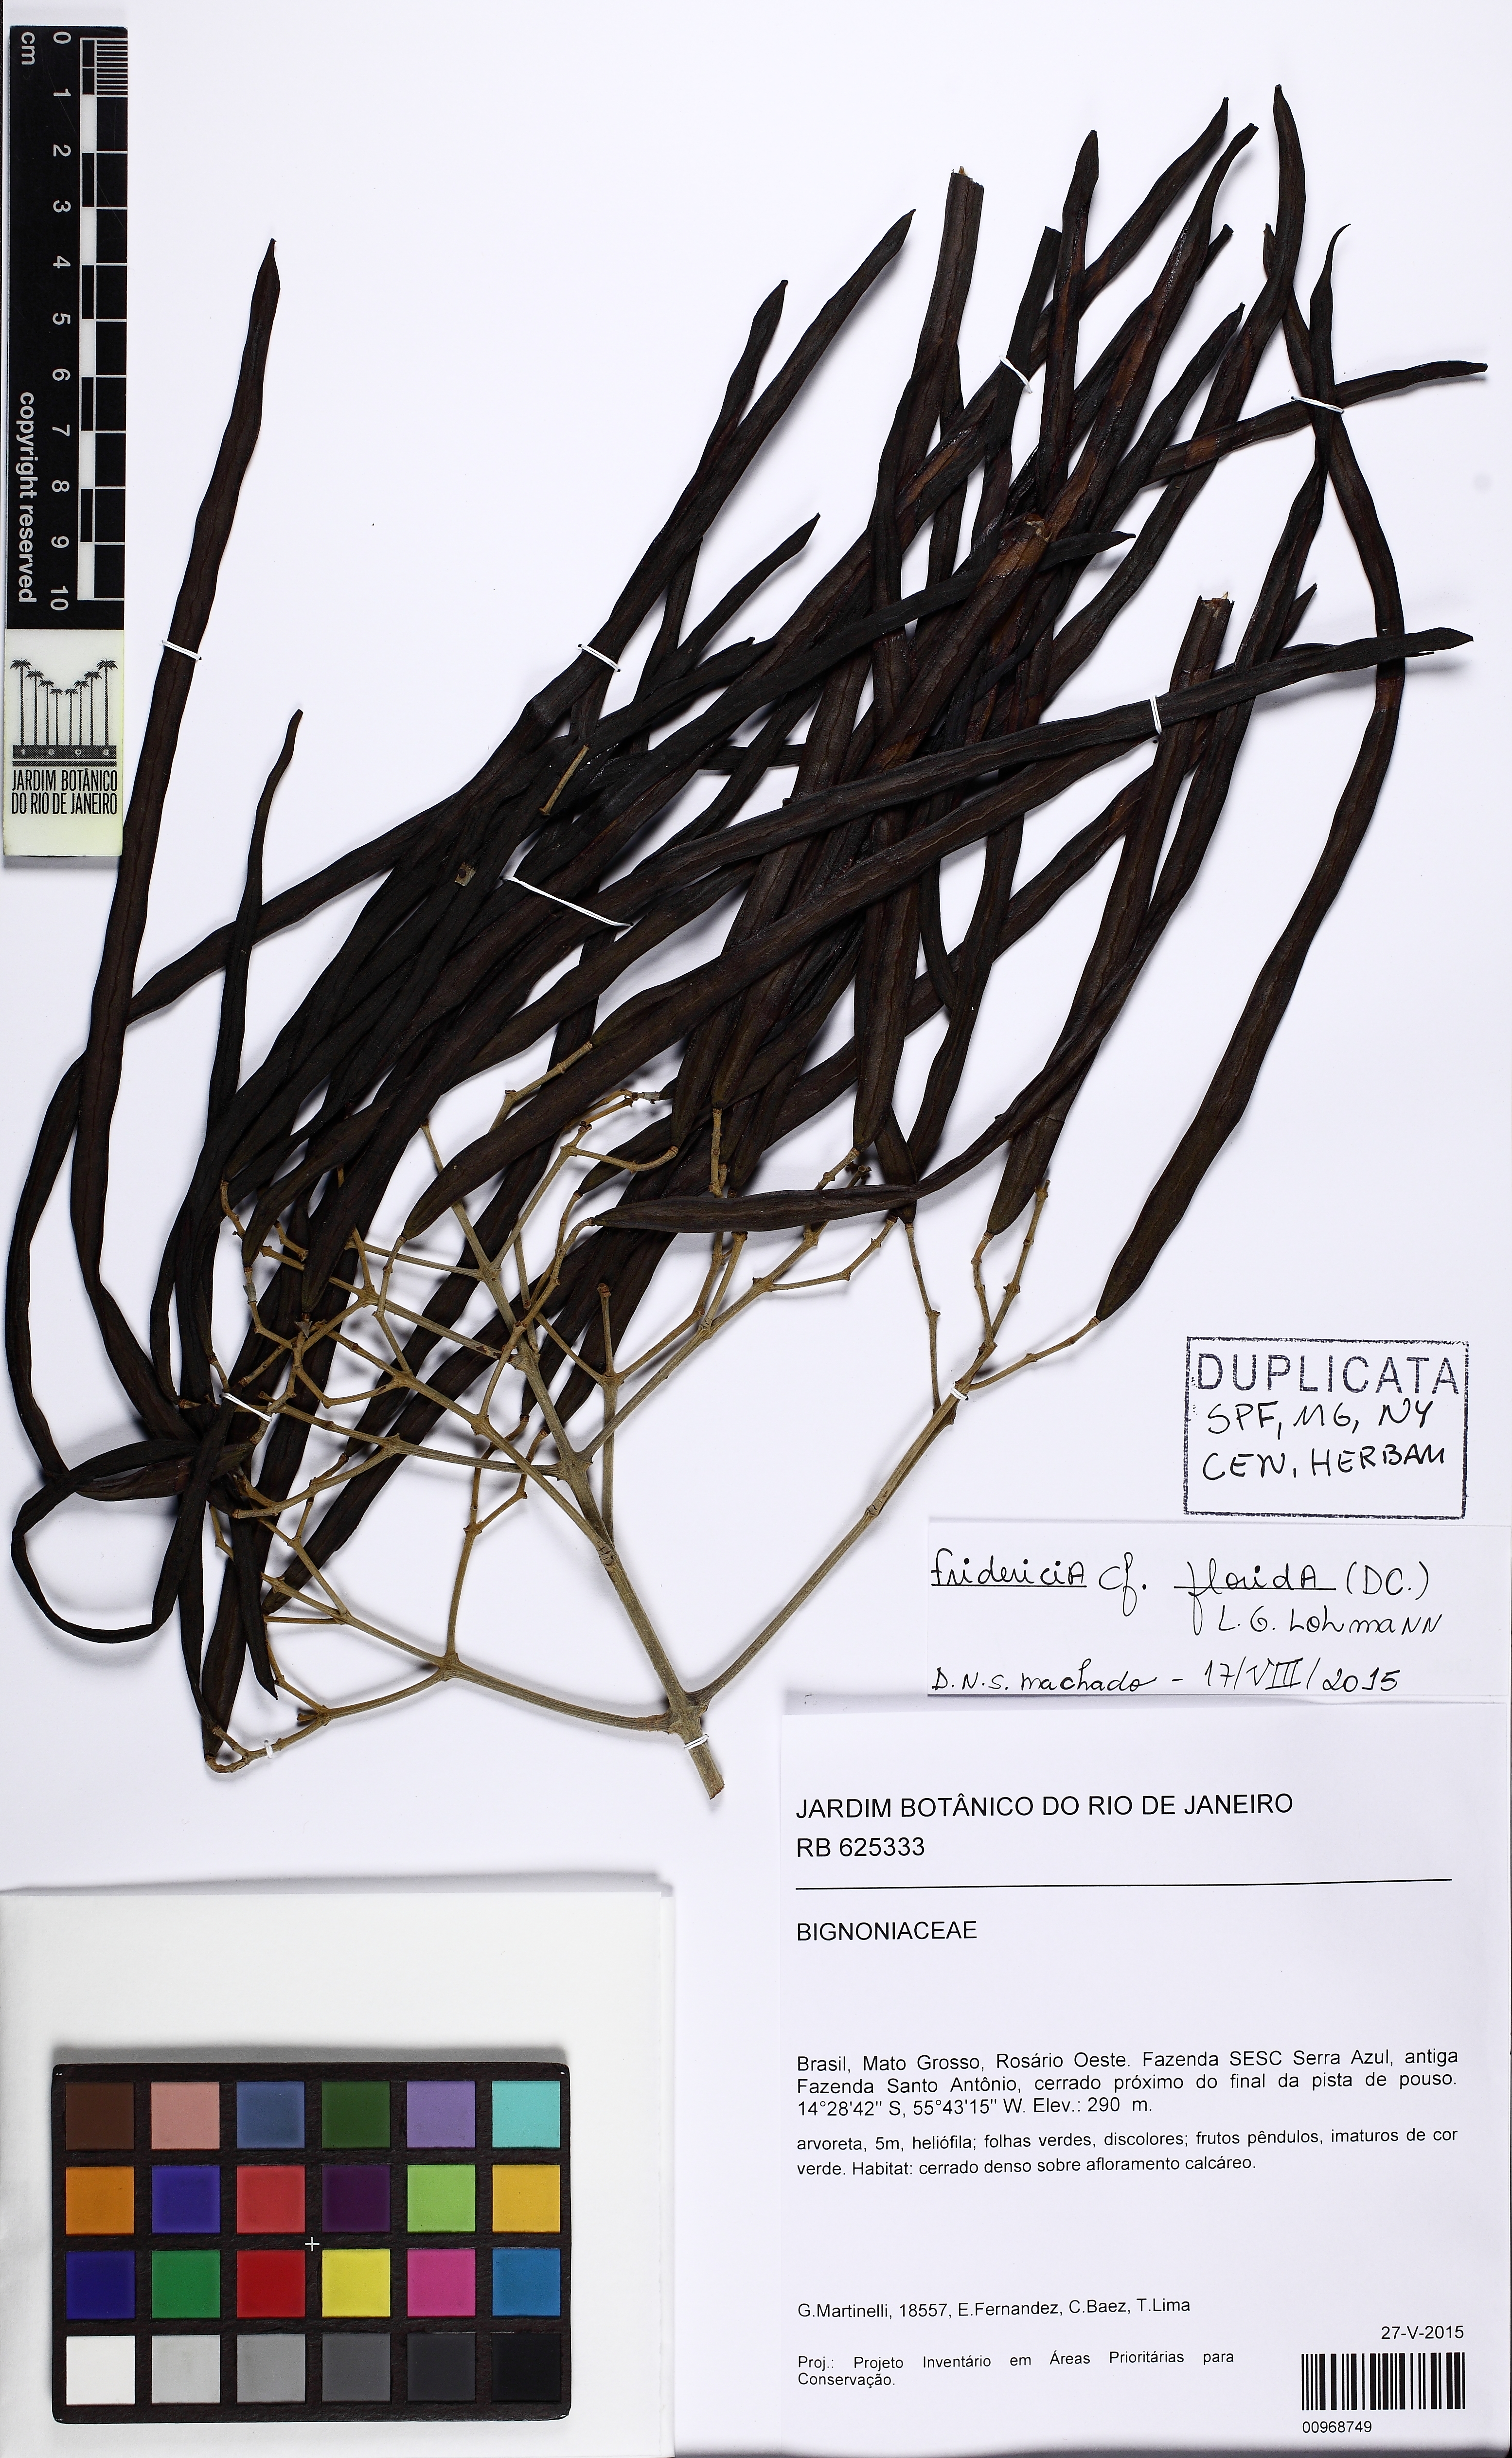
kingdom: Plantae
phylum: Tracheophyta
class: Magnoliopsida
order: Lamiales
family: Bignoniaceae
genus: Fridericia
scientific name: Fridericia florida
